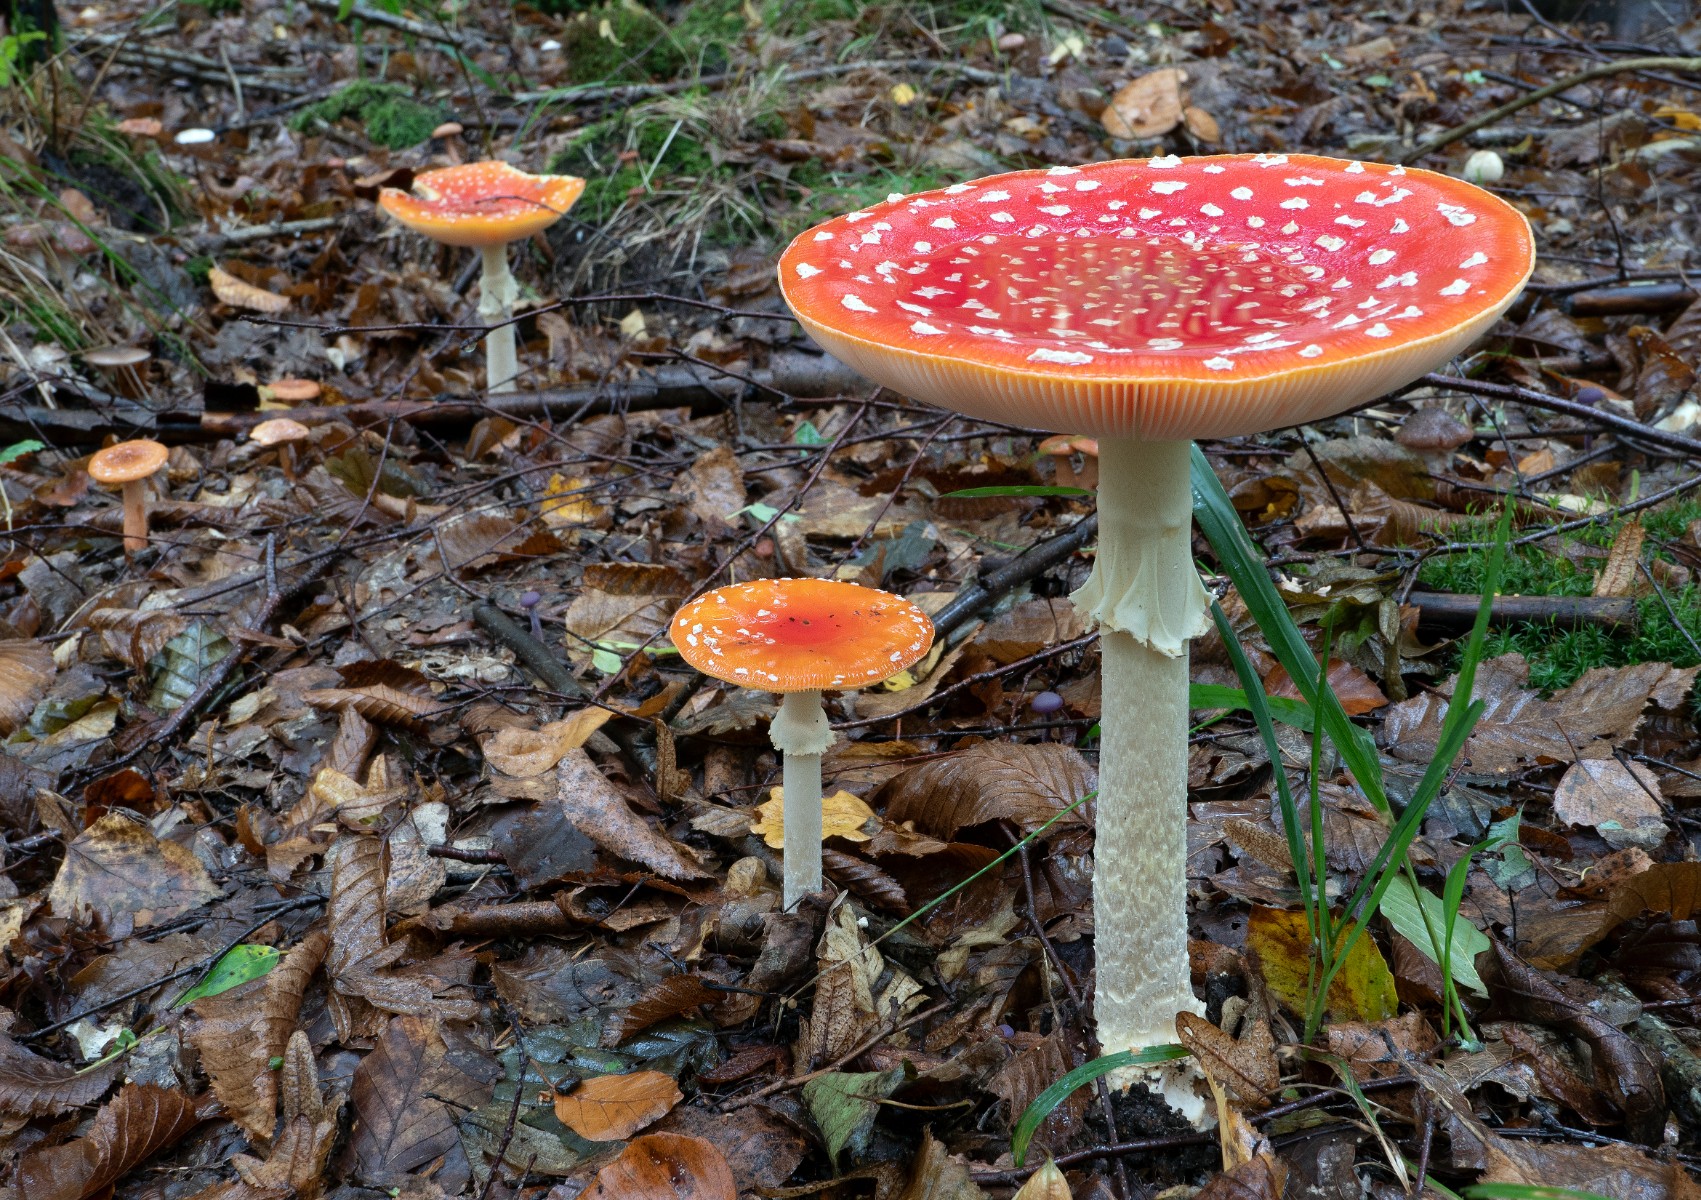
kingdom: Fungi
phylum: Basidiomycota
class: Agaricomycetes
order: Agaricales
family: Amanitaceae
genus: Amanita
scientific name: Amanita muscaria
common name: rød fluesvamp
